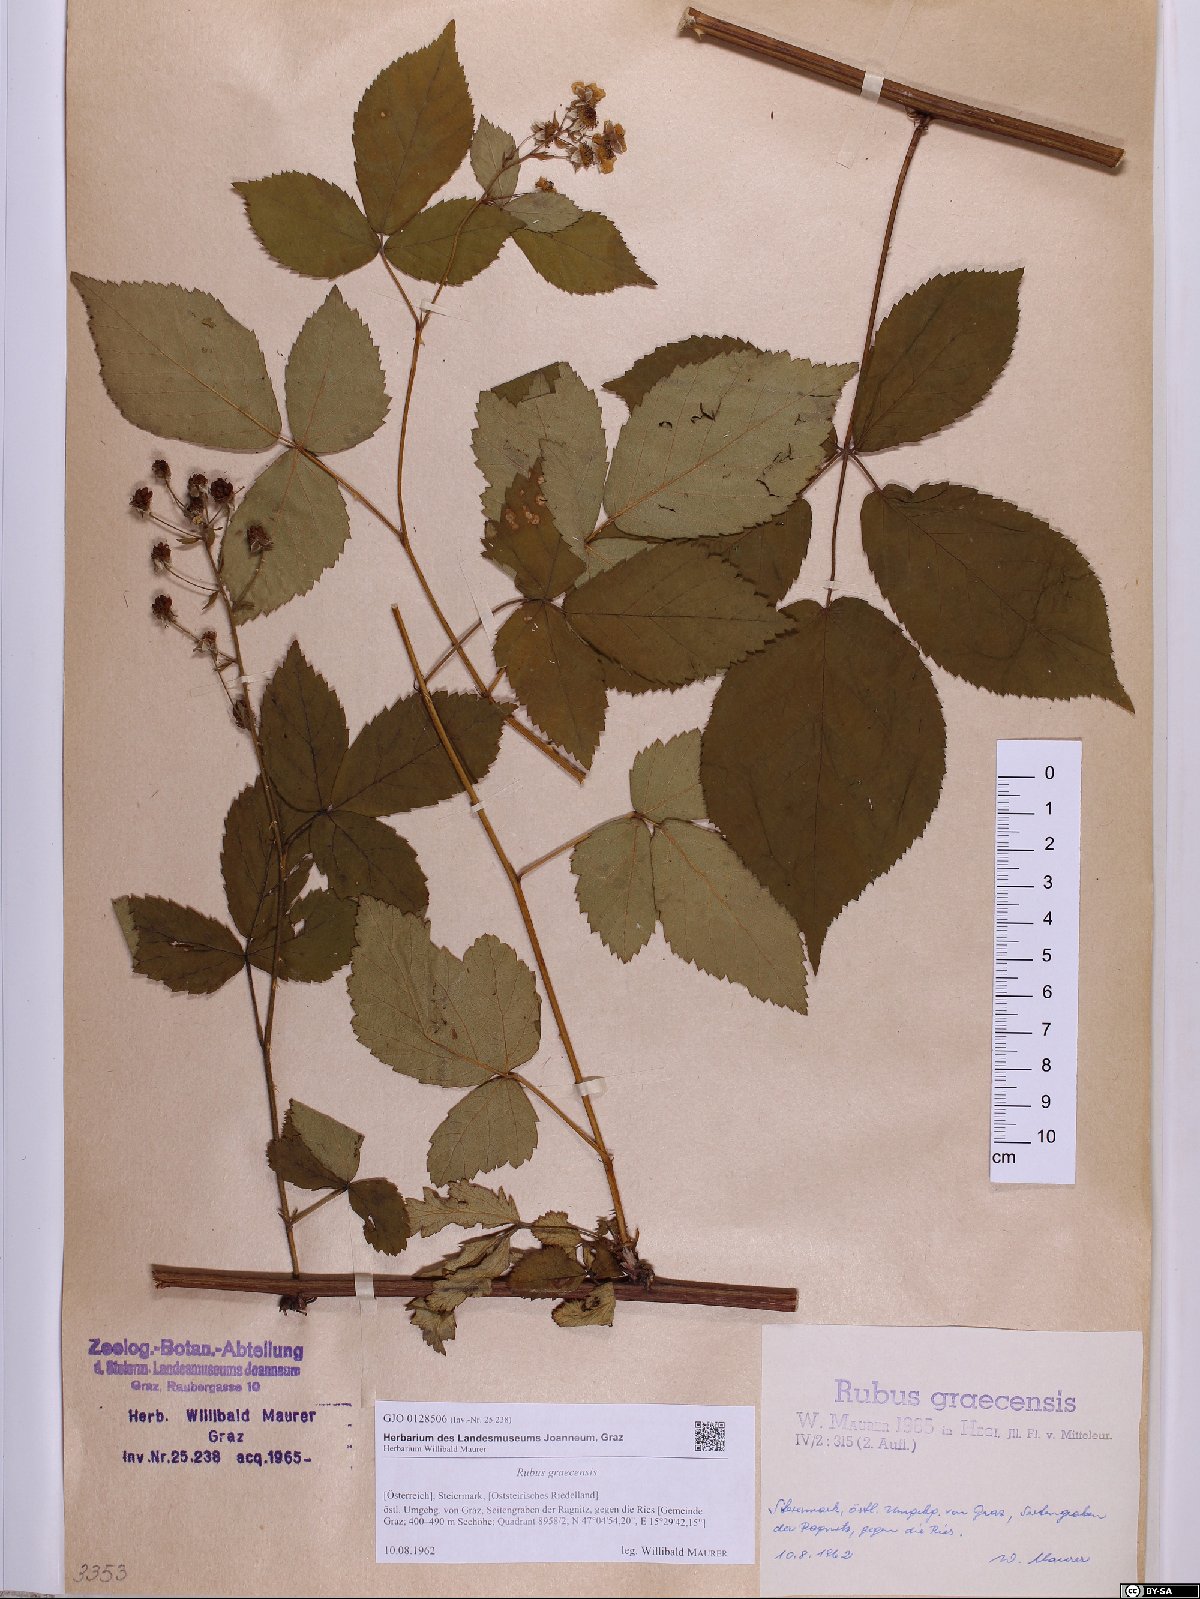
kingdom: Plantae
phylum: Tracheophyta
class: Magnoliopsida
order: Rosales
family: Rosaceae
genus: Rubus
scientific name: Rubus graecensis
